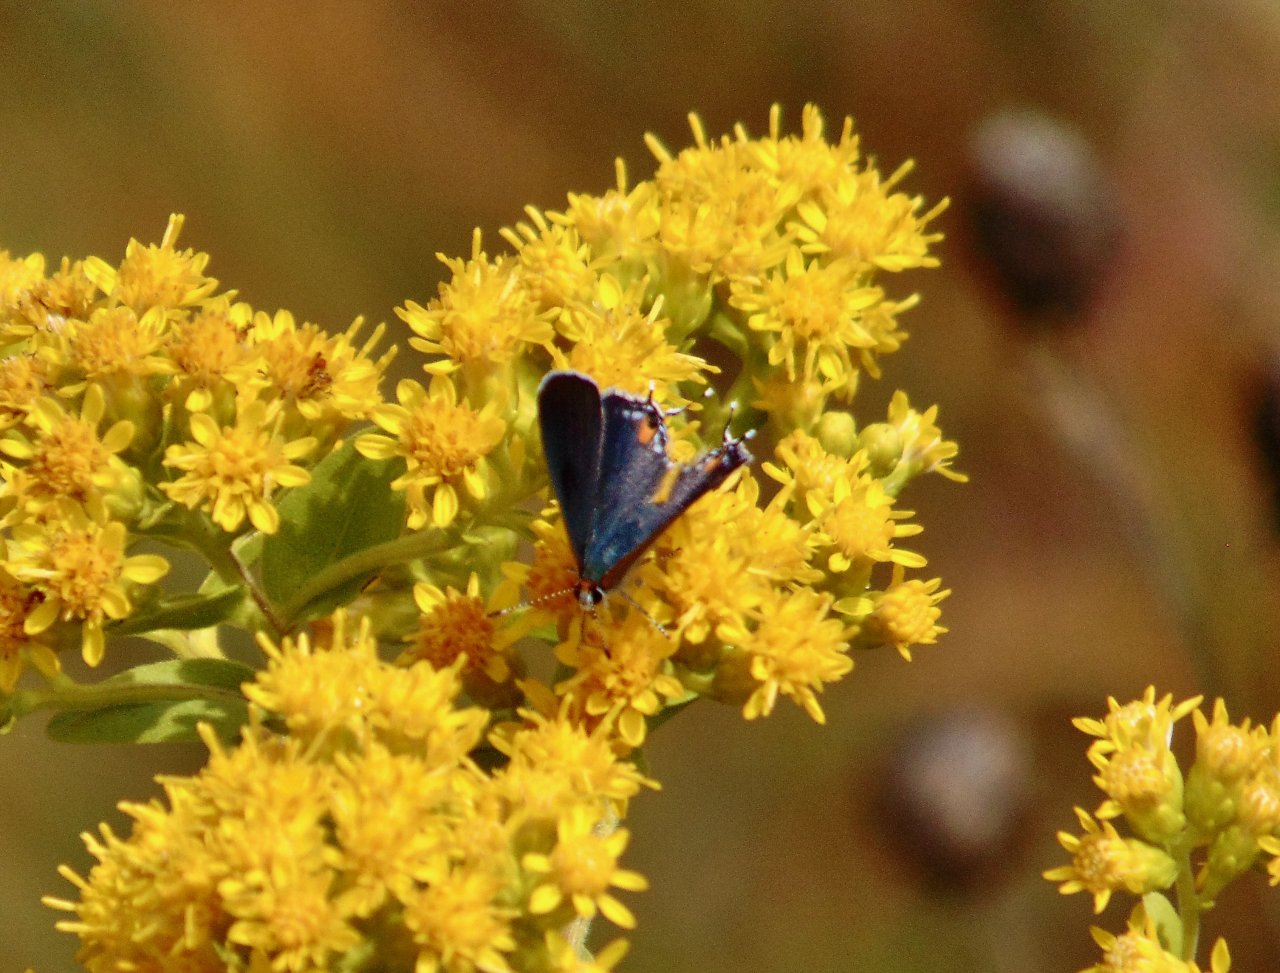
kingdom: Animalia
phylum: Arthropoda
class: Insecta
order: Lepidoptera
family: Lycaenidae
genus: Strymon
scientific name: Strymon melinus
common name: Gray Hairstreak
